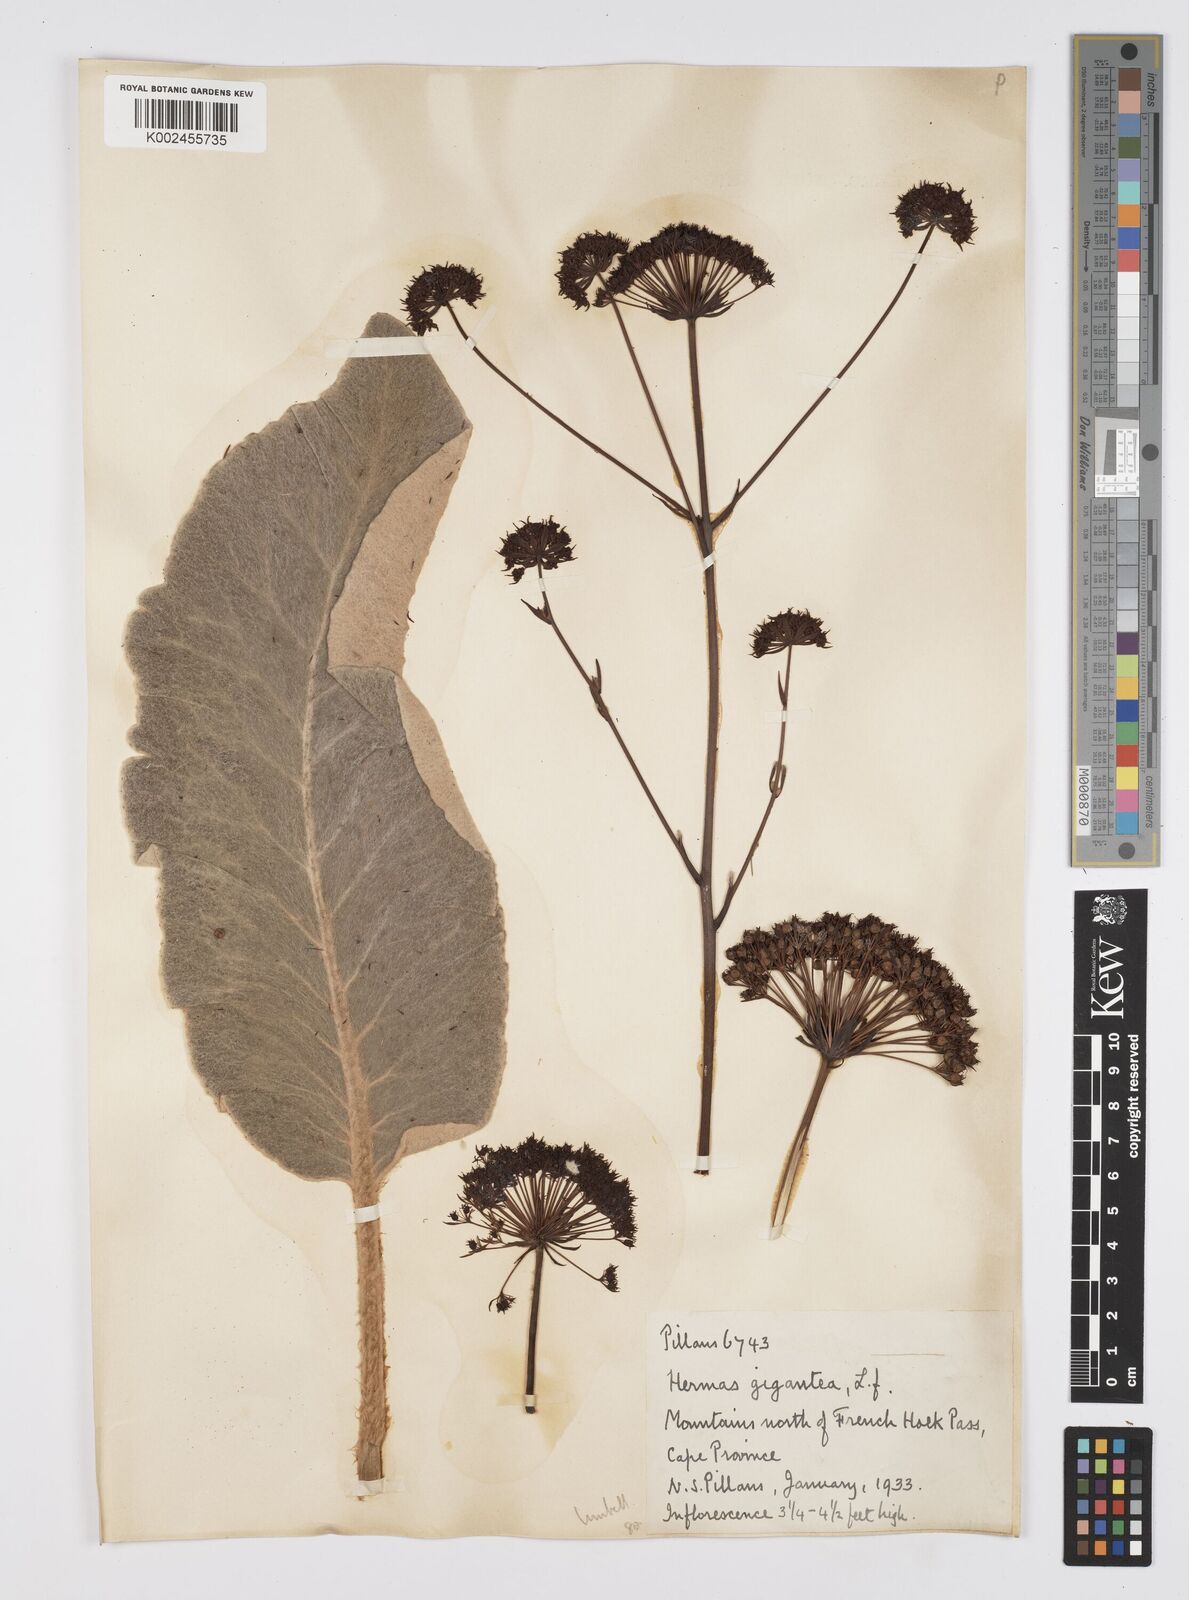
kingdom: Plantae
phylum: Tracheophyta
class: Magnoliopsida
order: Apiales
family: Apiaceae
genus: Hermas
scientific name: Hermas gigantea
